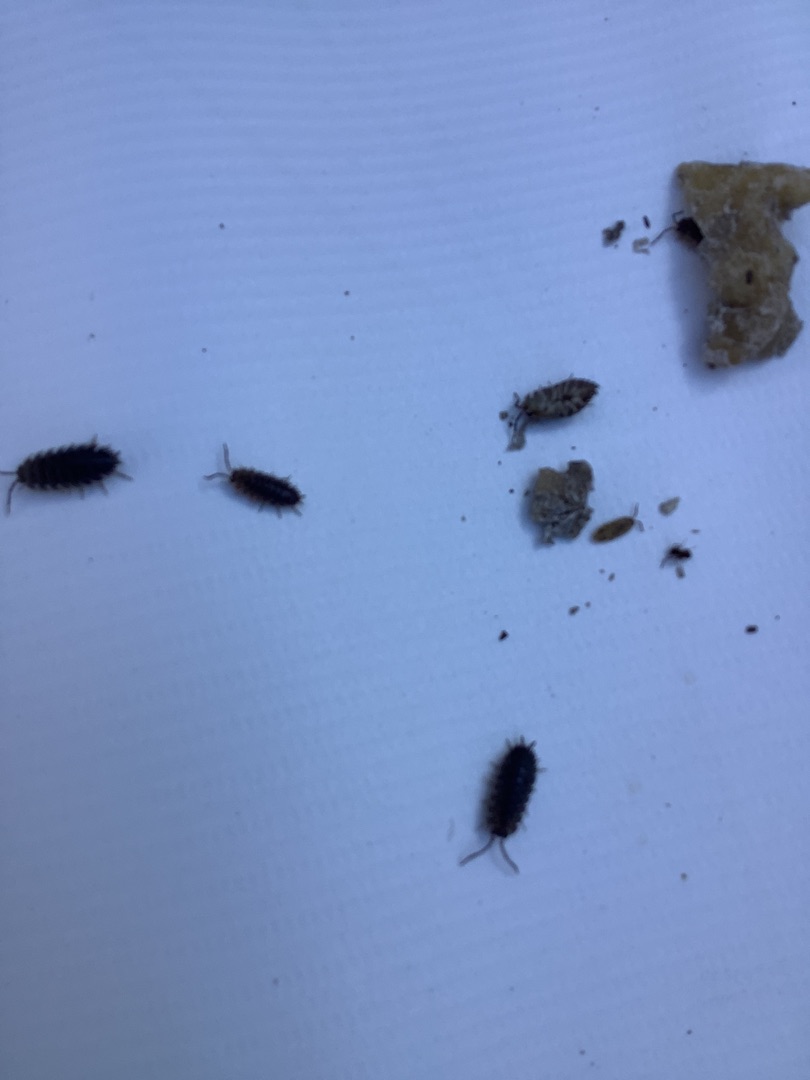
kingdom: Animalia
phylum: Arthropoda
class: Malacostraca
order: Isopoda
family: Porcellionidae
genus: Porcellio
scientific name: Porcellio scaber
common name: Grå bænkebider
